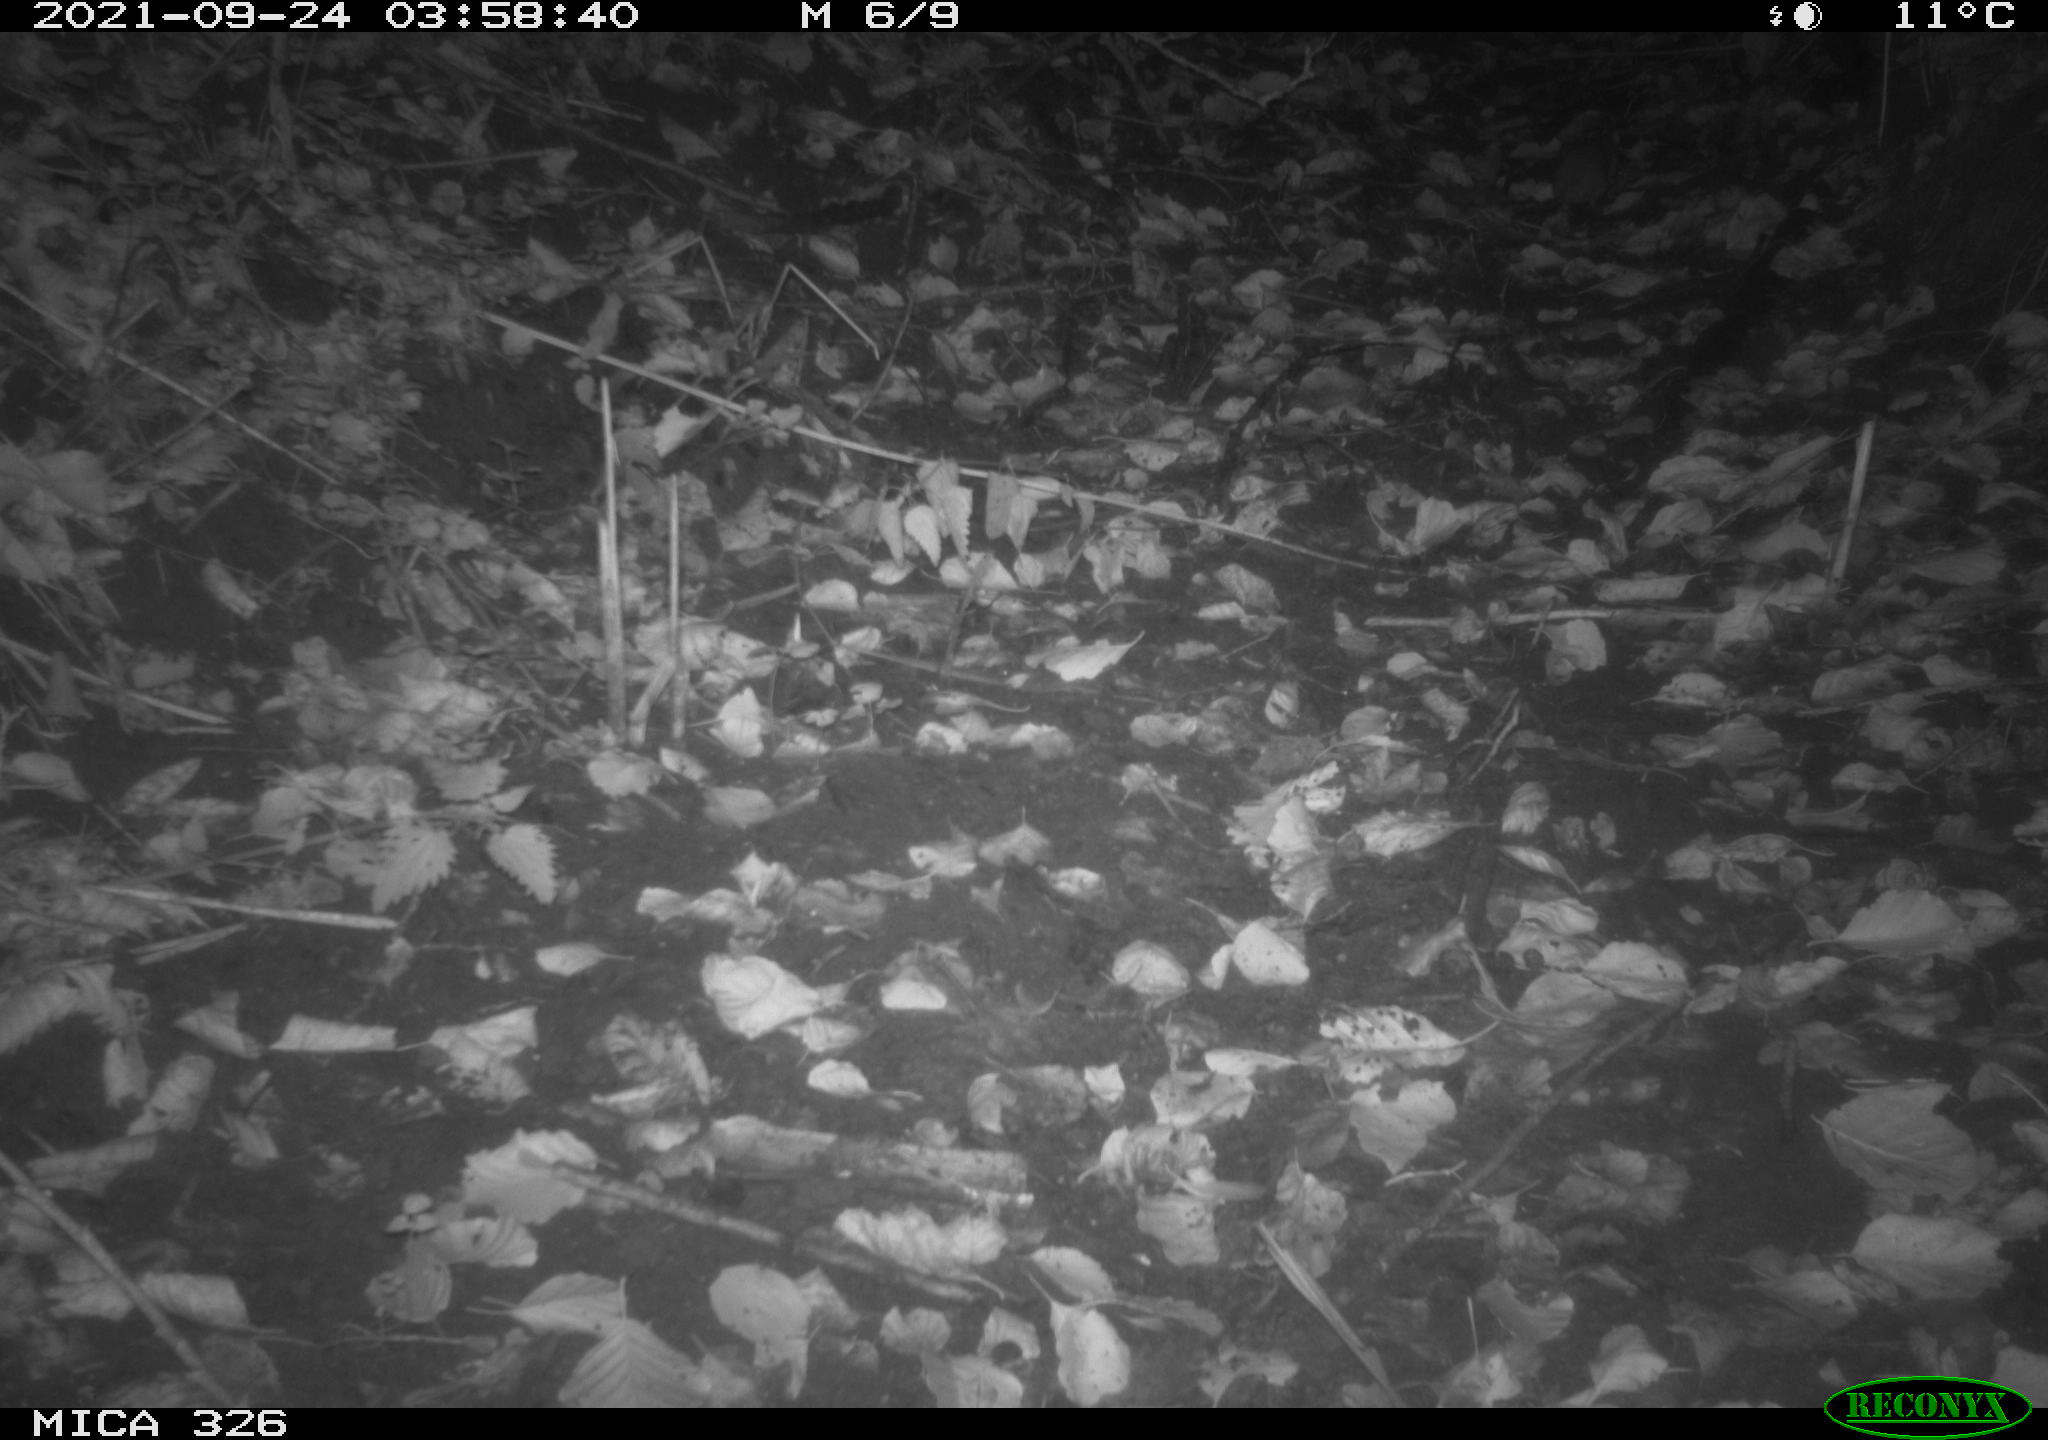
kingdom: Animalia
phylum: Chordata
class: Mammalia
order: Rodentia
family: Muridae
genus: Rattus
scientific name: Rattus norvegicus
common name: Brown rat
